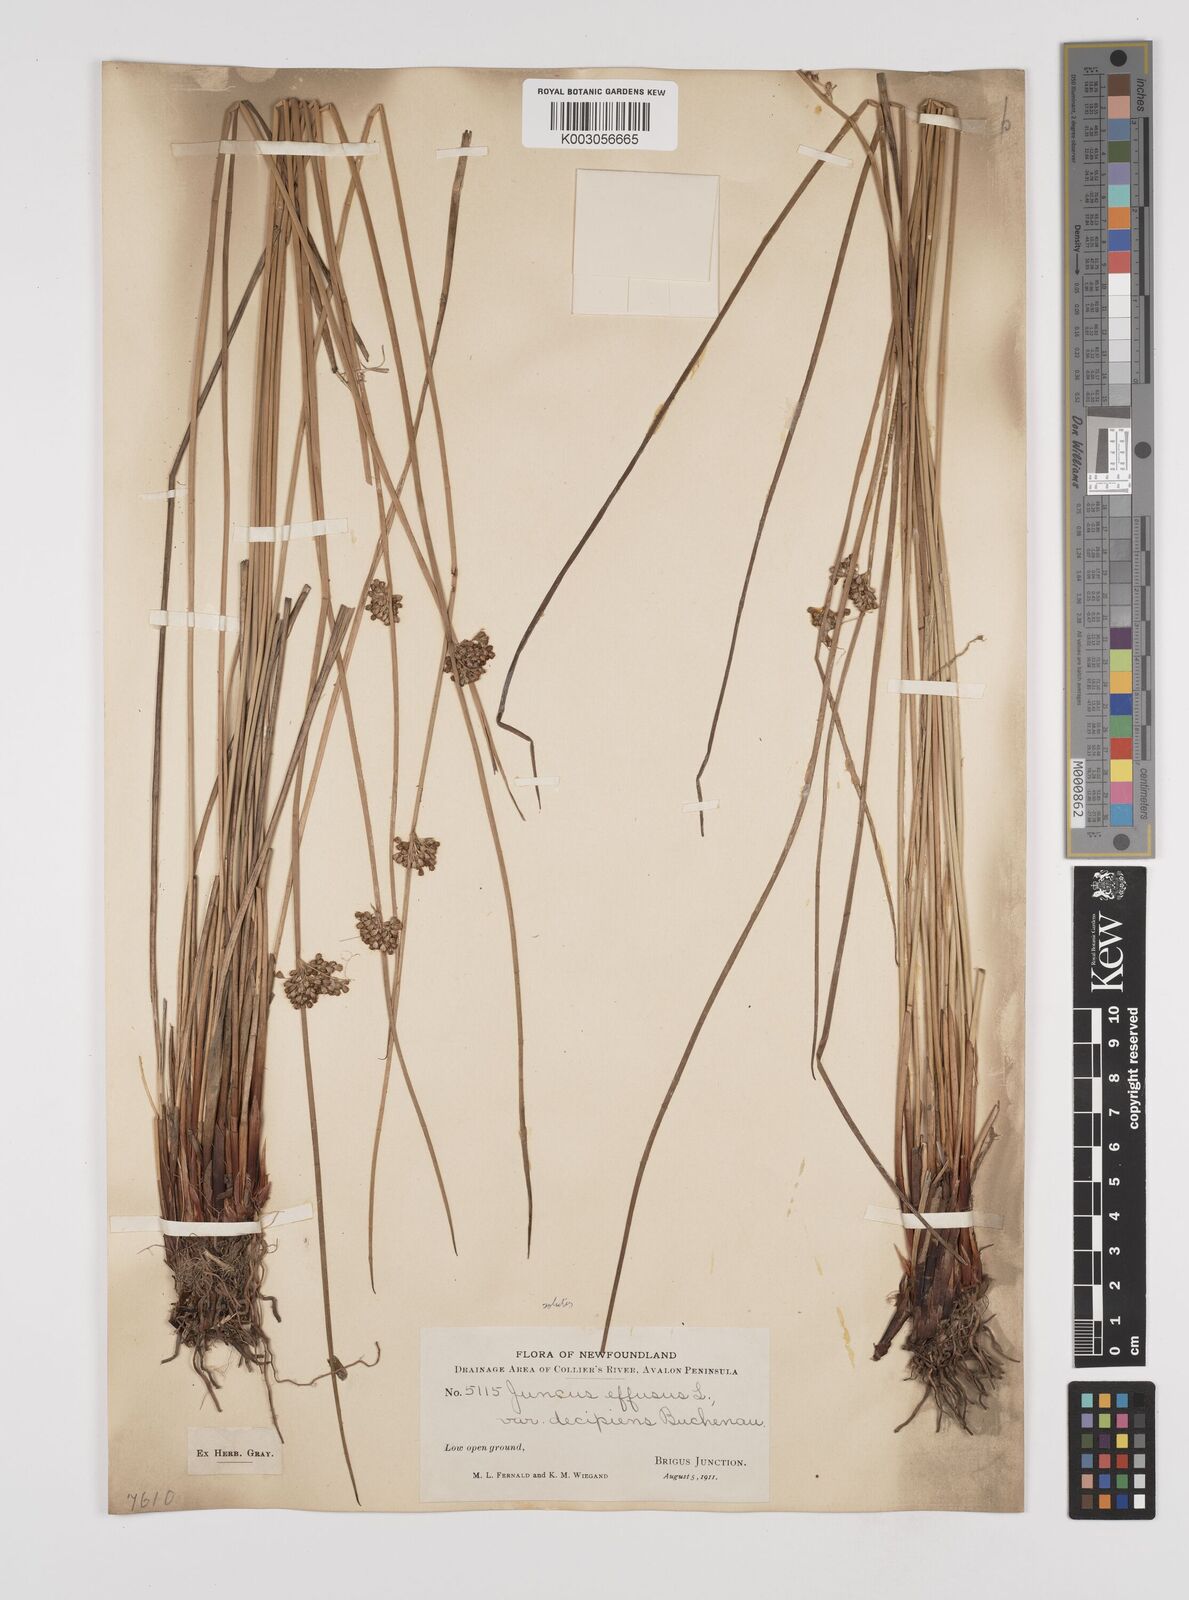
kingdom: Plantae
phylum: Tracheophyta
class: Liliopsida
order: Poales
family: Juncaceae
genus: Juncus
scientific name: Juncus effusus
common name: Soft rush
